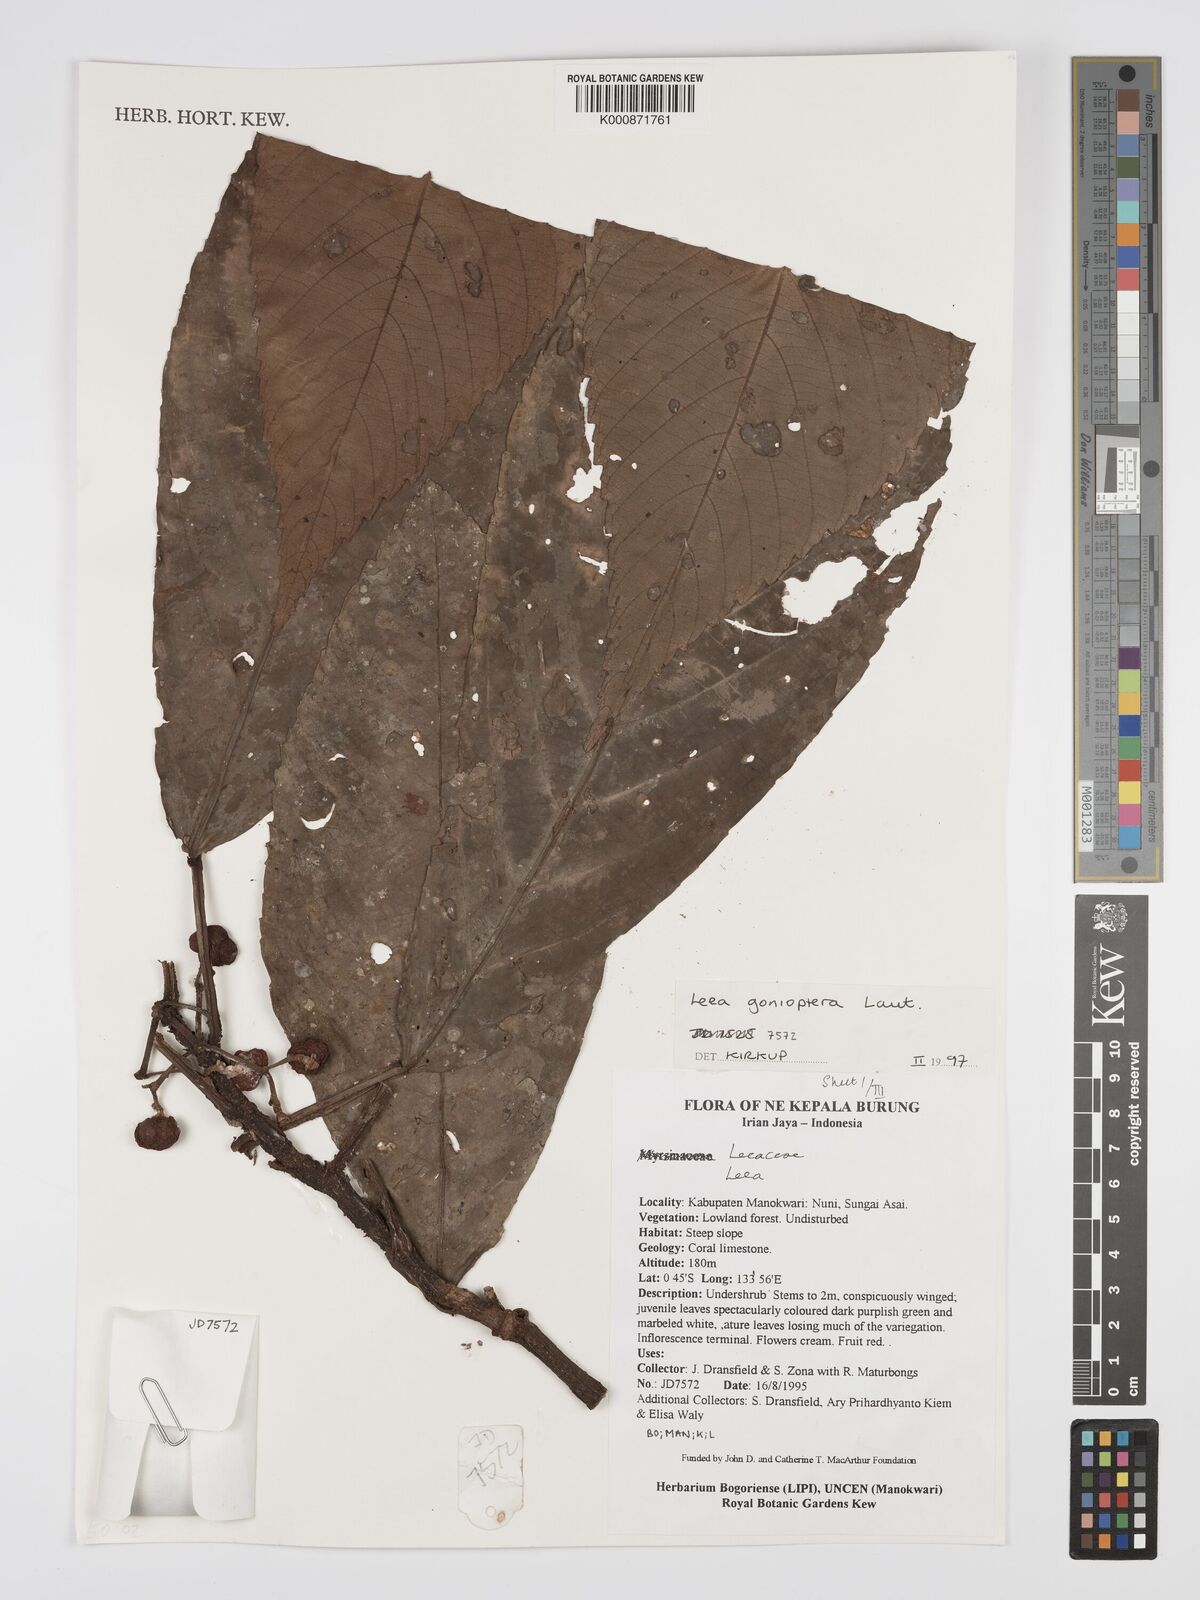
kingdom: Plantae
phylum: Tracheophyta
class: Magnoliopsida
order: Vitales
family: Vitaceae
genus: Leea
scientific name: Leea gonioptera
